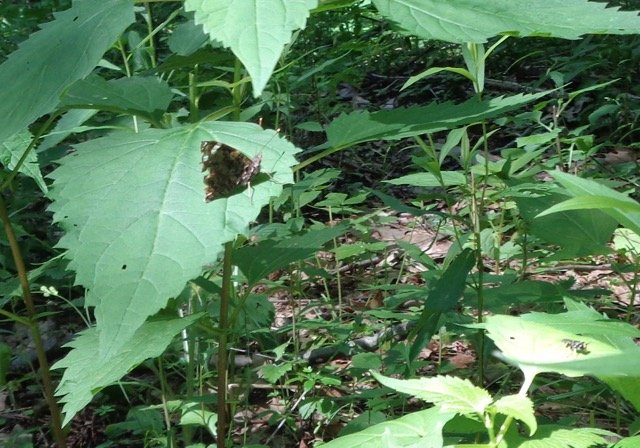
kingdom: Animalia
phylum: Arthropoda
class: Insecta
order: Lepidoptera
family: Nymphalidae
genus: Vanessa
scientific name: Vanessa atalanta
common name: Red Admiral
